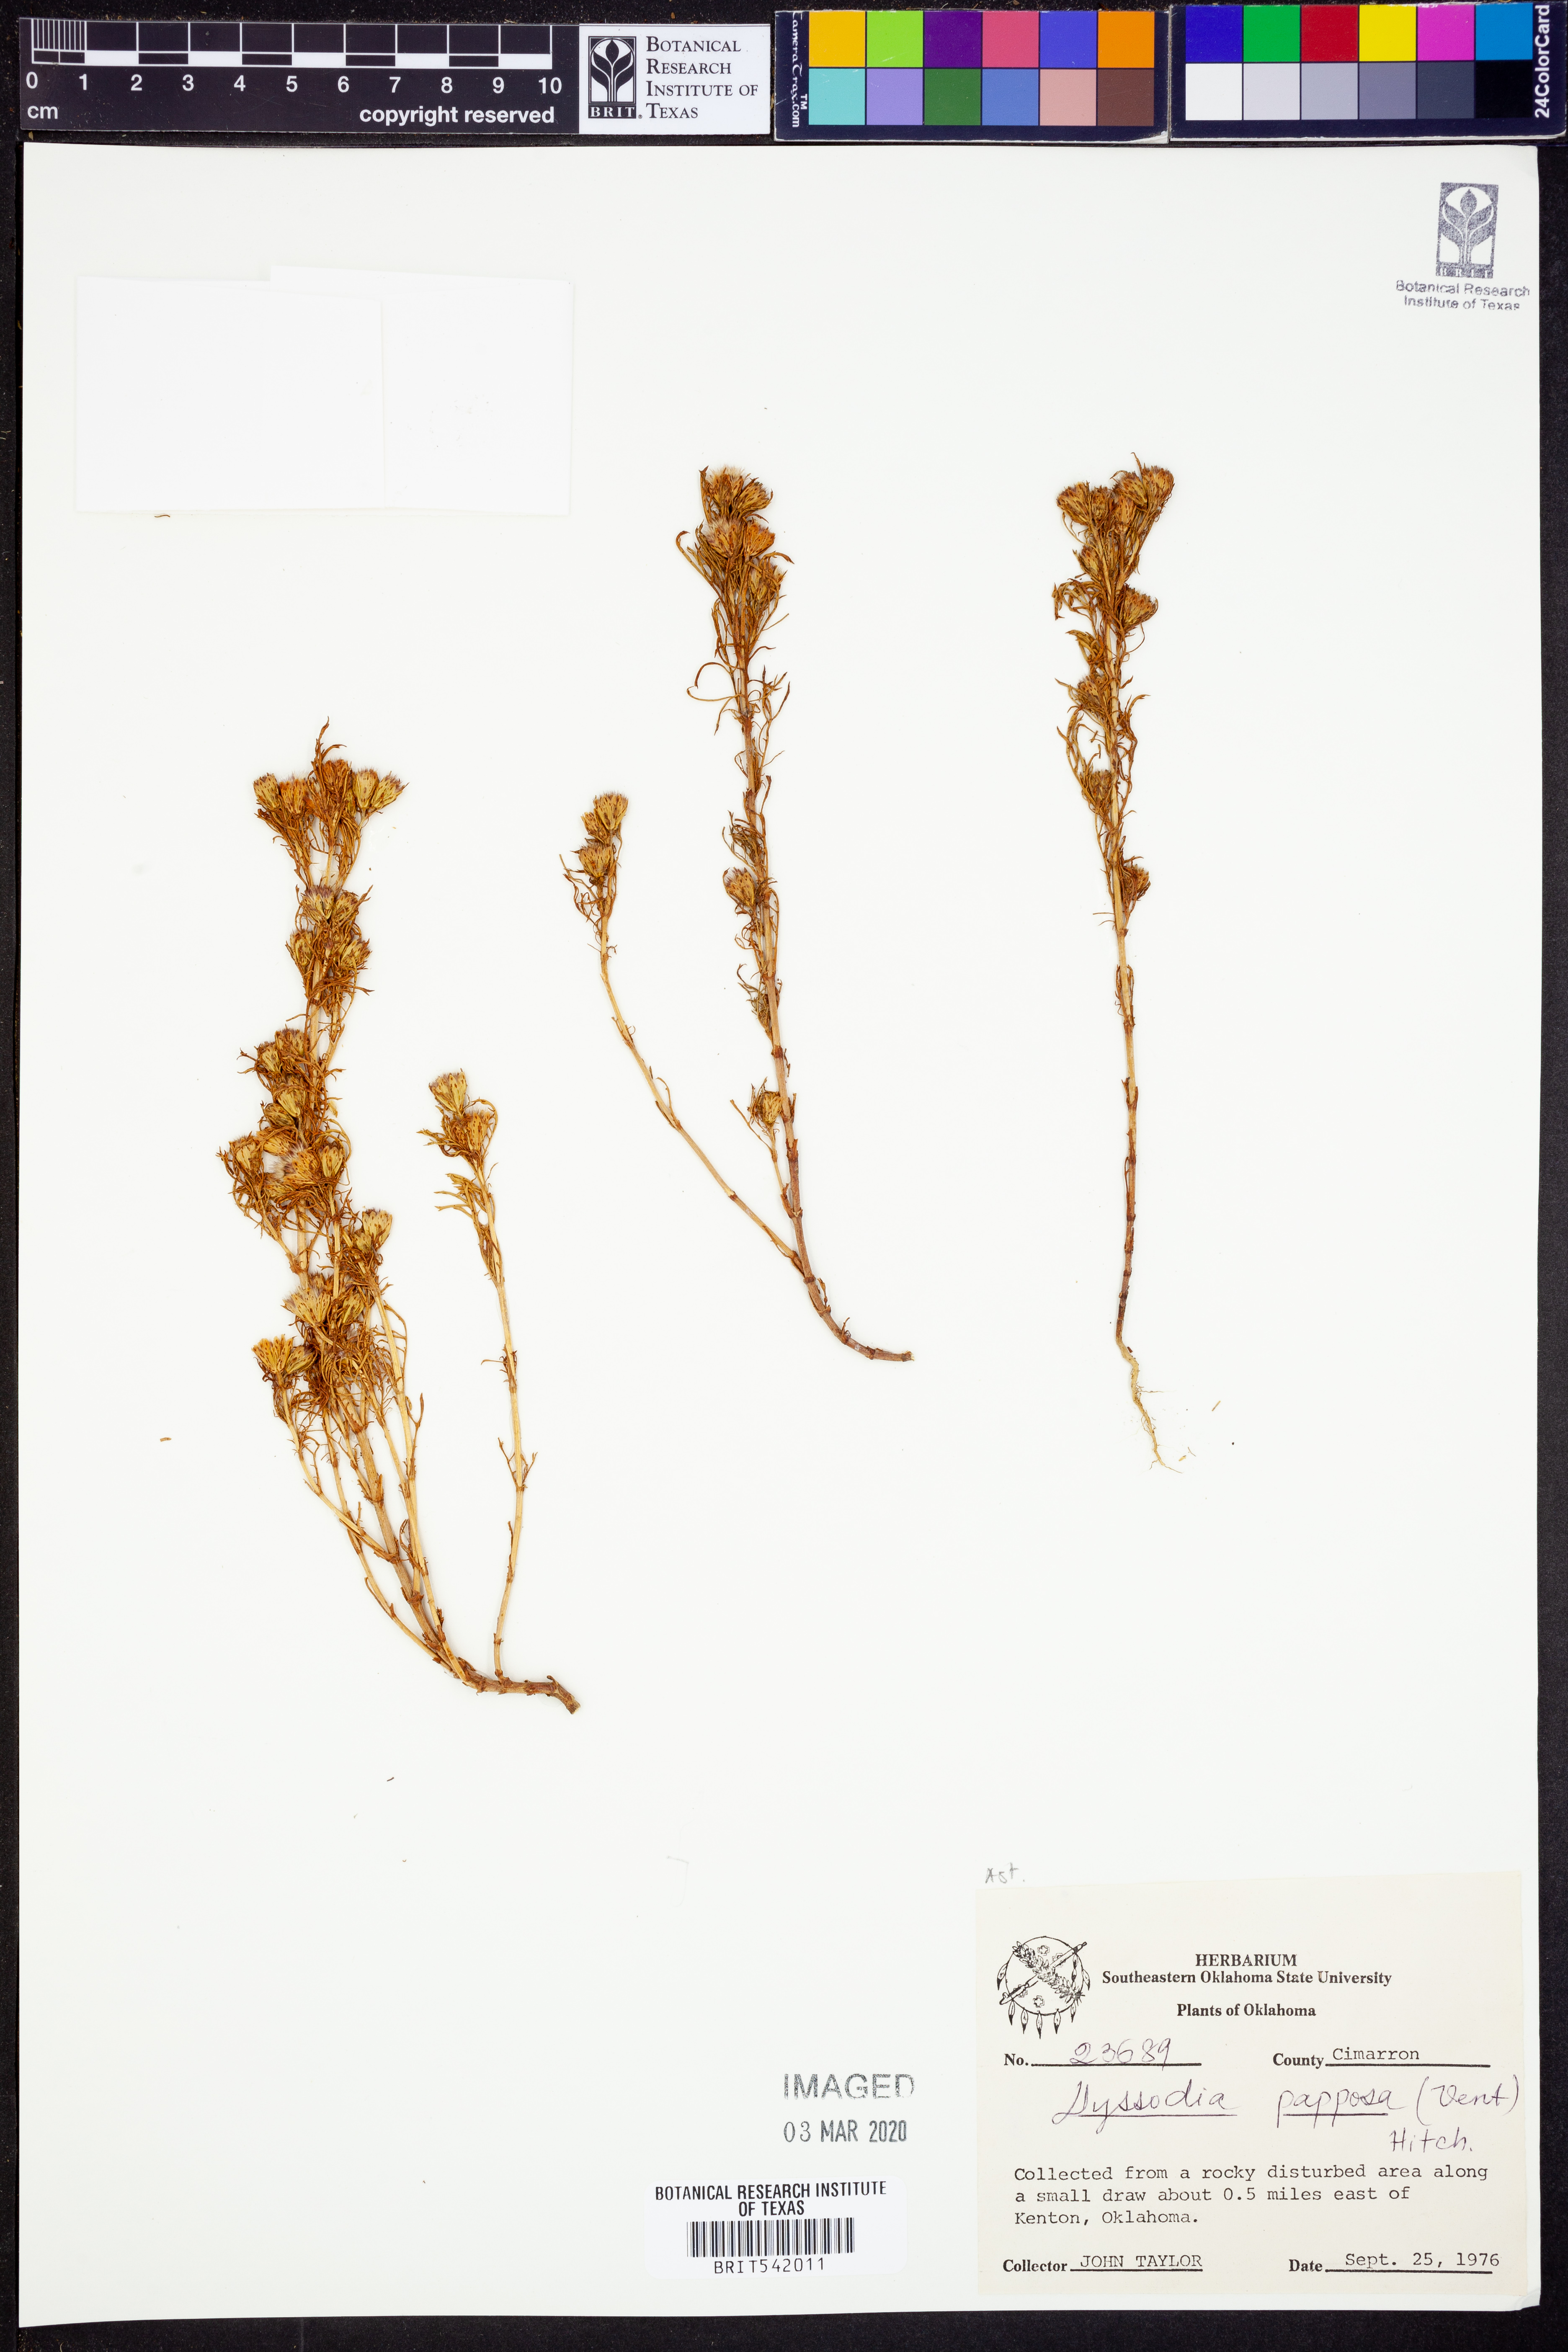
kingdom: Plantae
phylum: Tracheophyta
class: Magnoliopsida
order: Asterales
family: Asteraceae
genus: Dyssodia
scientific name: Dyssodia papposa
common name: Dogweed
